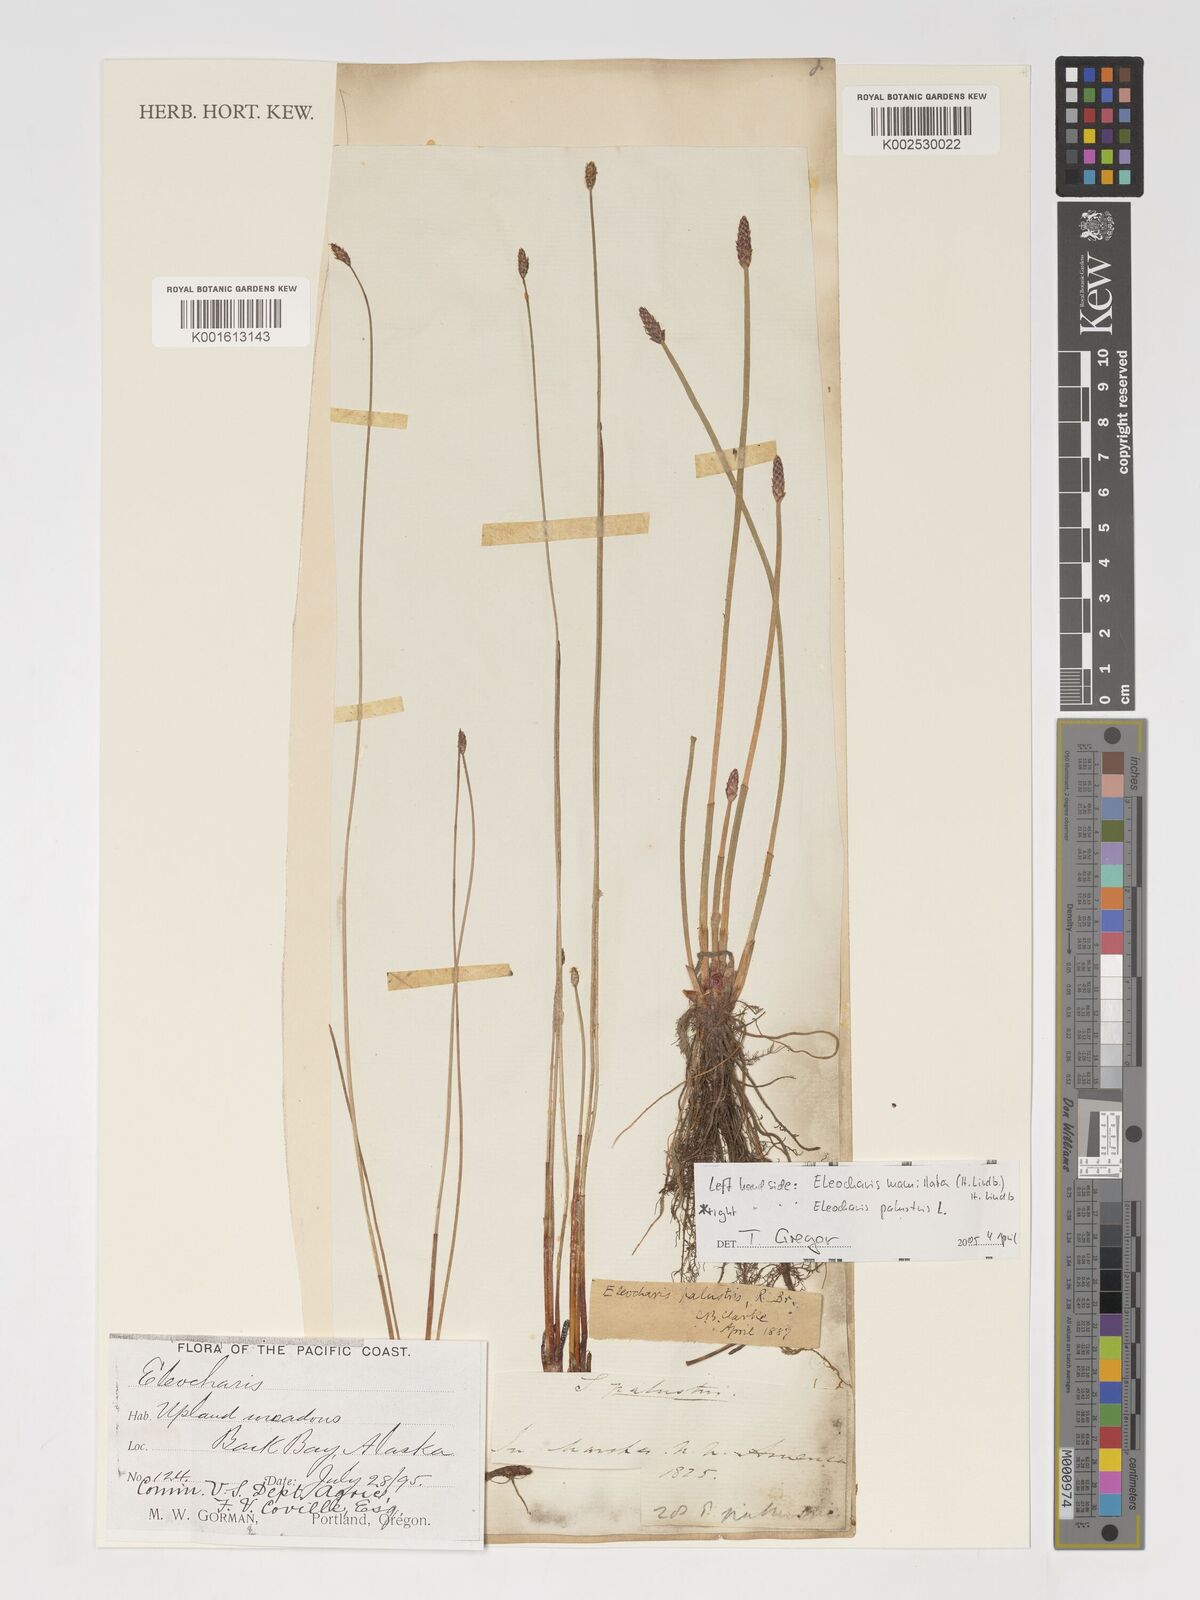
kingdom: Plantae
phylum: Tracheophyta
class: Liliopsida
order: Poales
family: Cyperaceae
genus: Eleocharis
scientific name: Eleocharis palustris
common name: Common spike-rush
